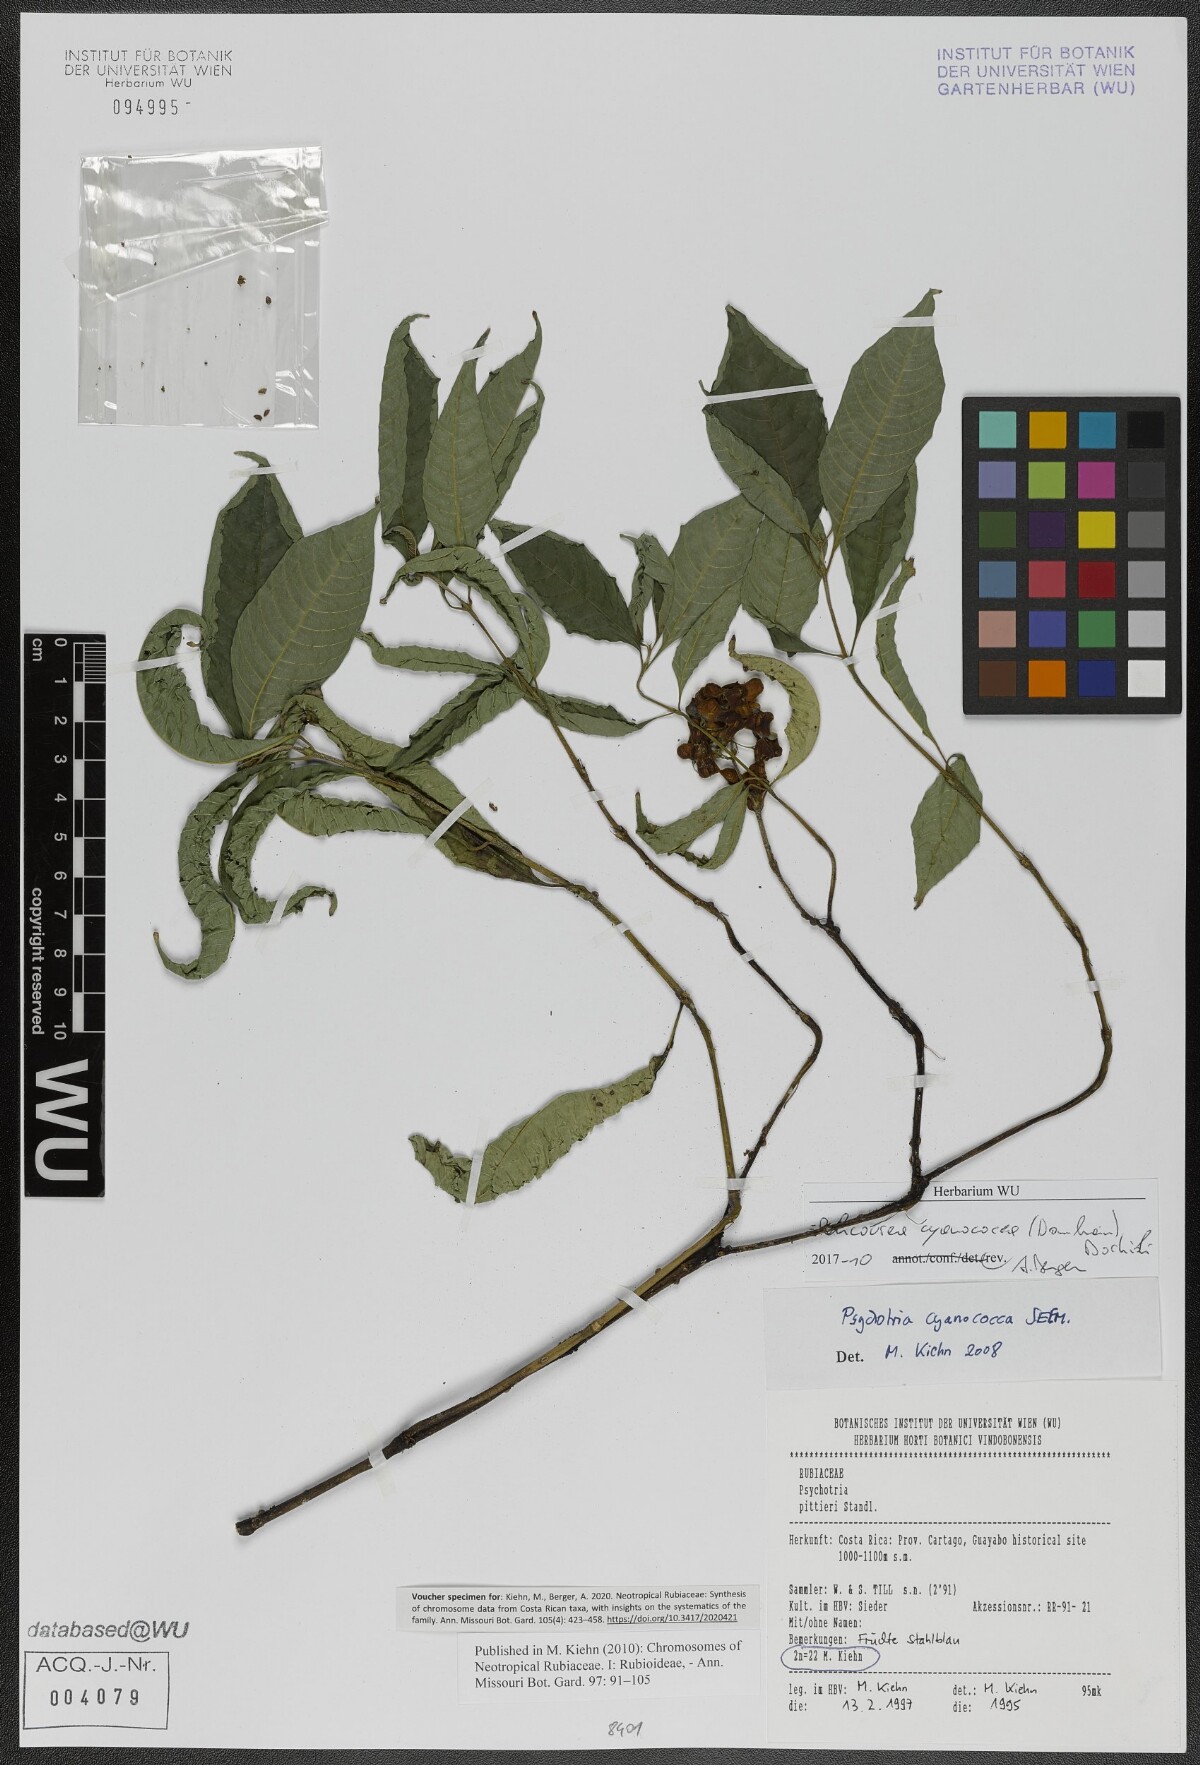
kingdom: Plantae
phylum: Tracheophyta
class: Magnoliopsida
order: Gentianales
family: Rubiaceae
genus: Palicourea
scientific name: Palicourea cyanococca
